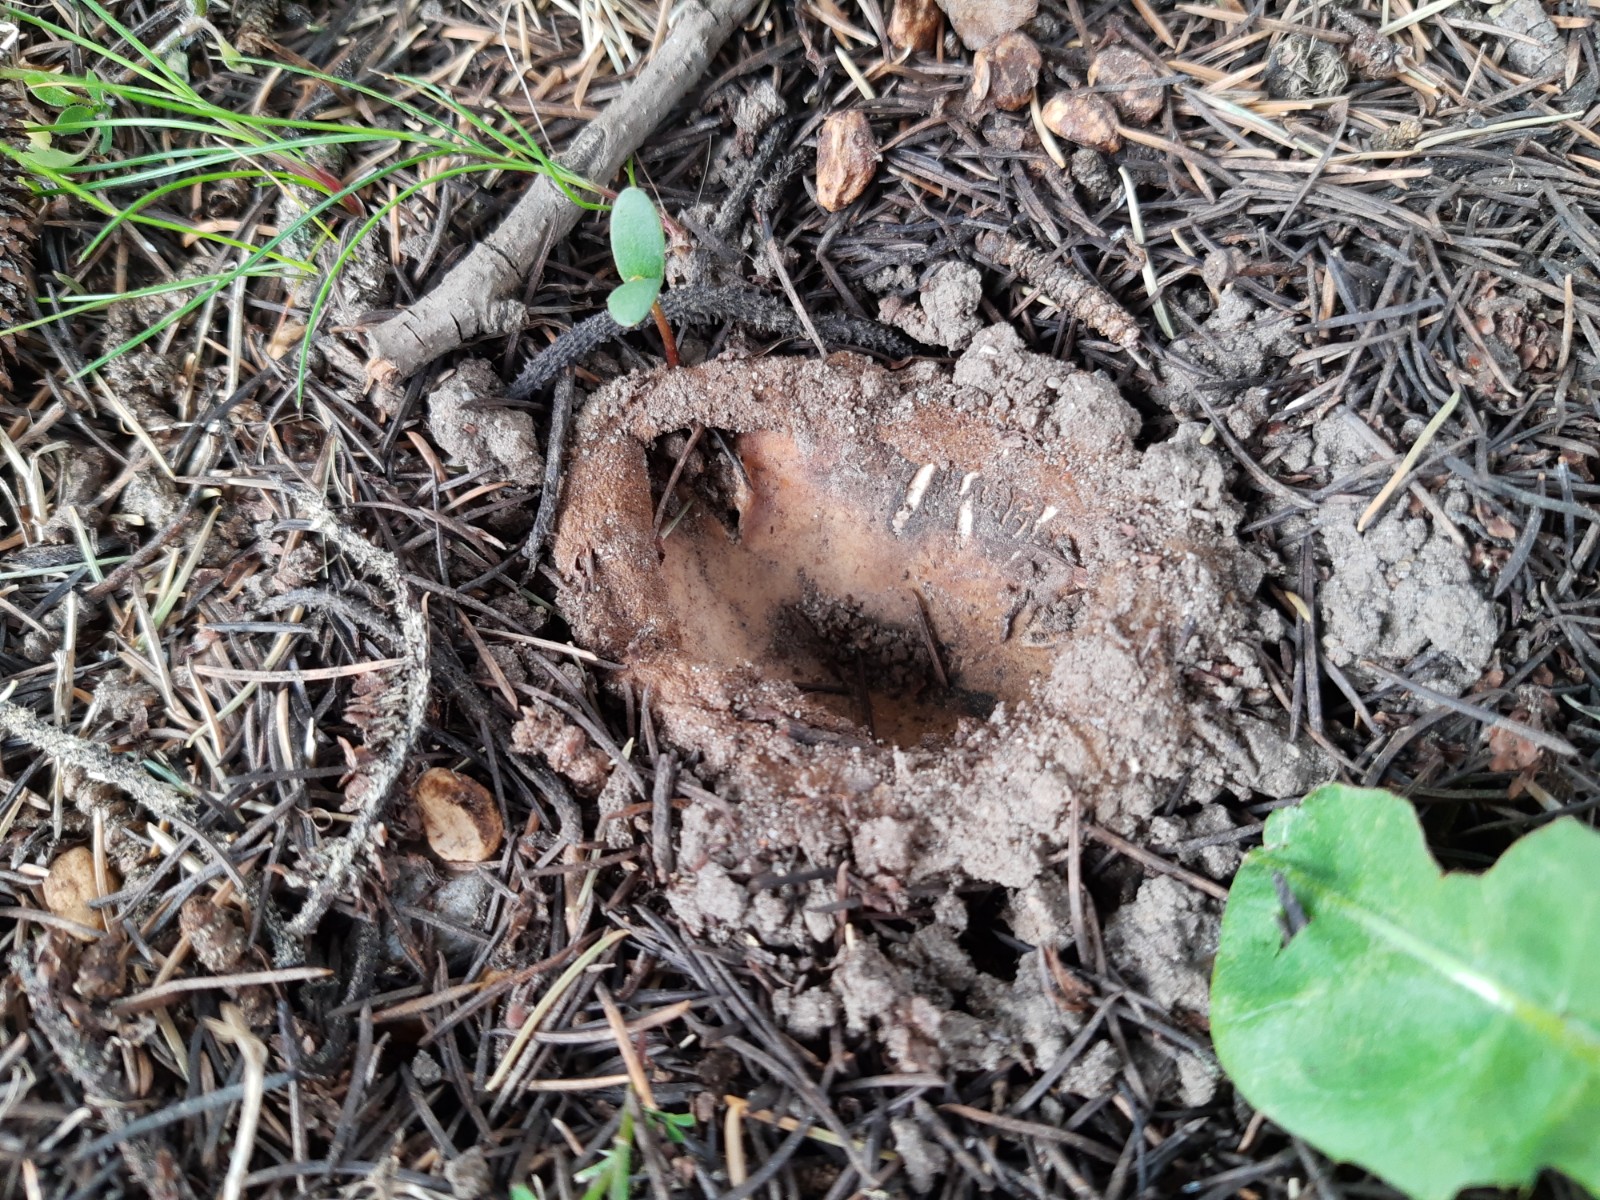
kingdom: Fungi
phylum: Ascomycota
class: Pezizomycetes
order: Pezizales
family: Pyronemataceae
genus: Geopora
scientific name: Geopora sumneriana
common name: vår-jordbæger
